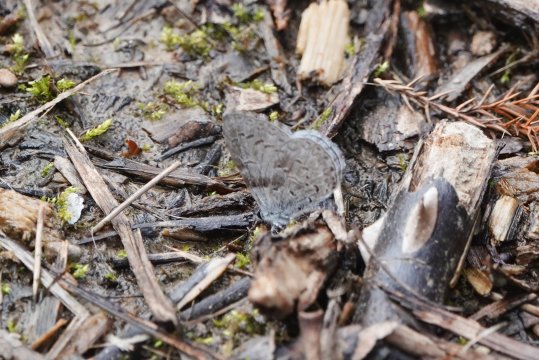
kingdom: Animalia
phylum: Arthropoda
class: Insecta
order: Lepidoptera
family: Lycaenidae
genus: Cyaniris
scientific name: Cyaniris neglecta
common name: Summer Azure
